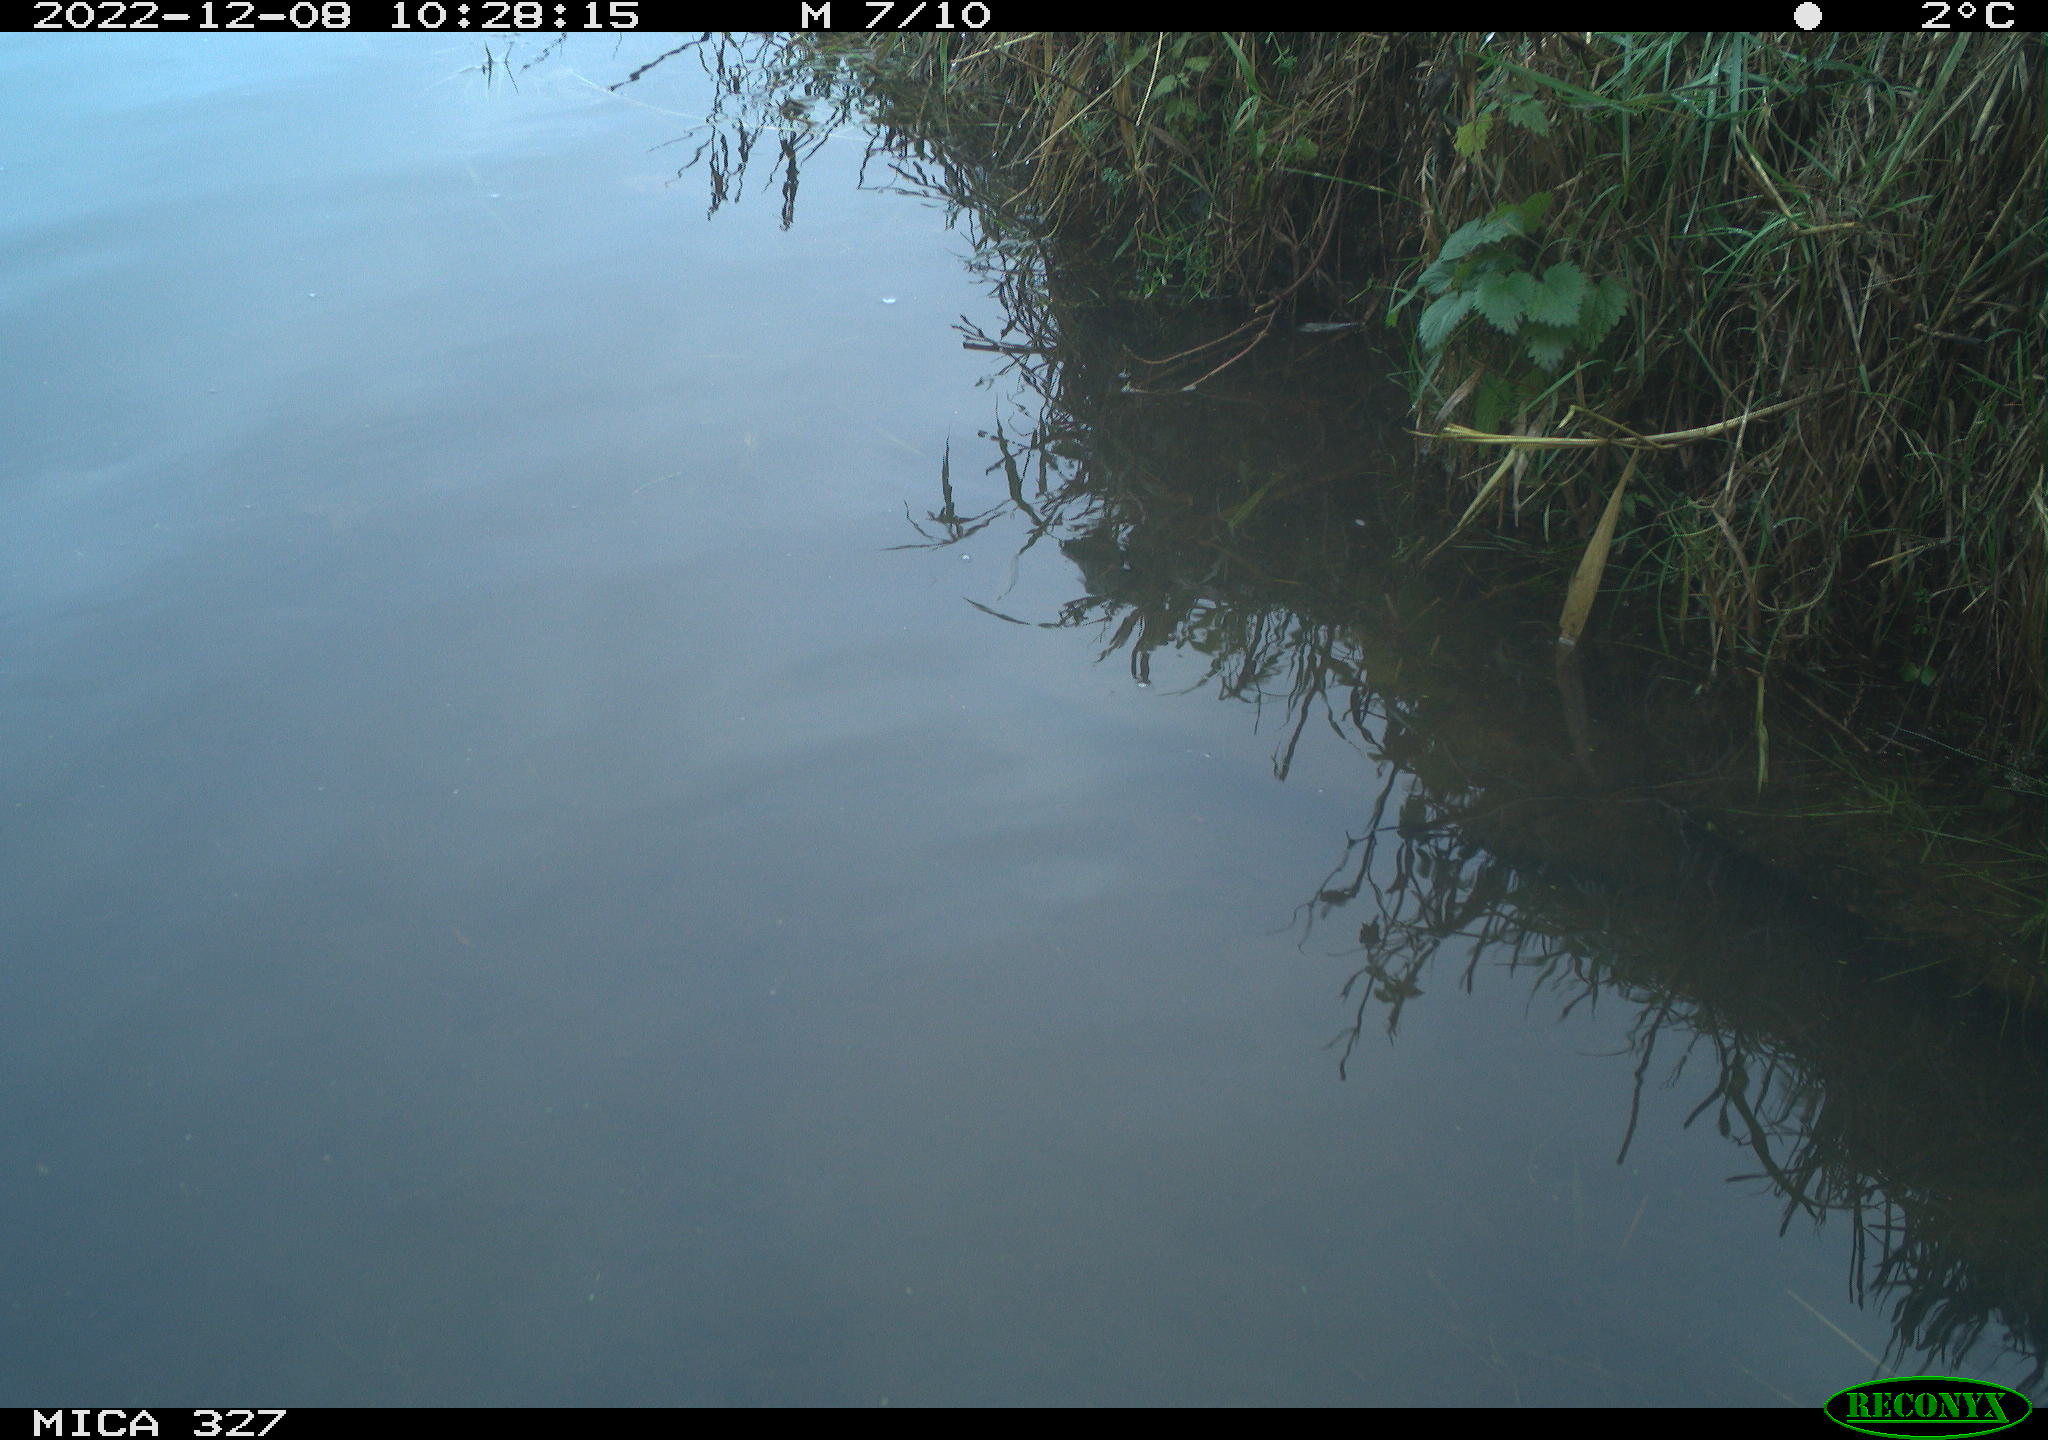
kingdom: Animalia
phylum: Chordata
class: Aves
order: Gruiformes
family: Rallidae
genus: Gallinula
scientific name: Gallinula chloropus
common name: Common moorhen
